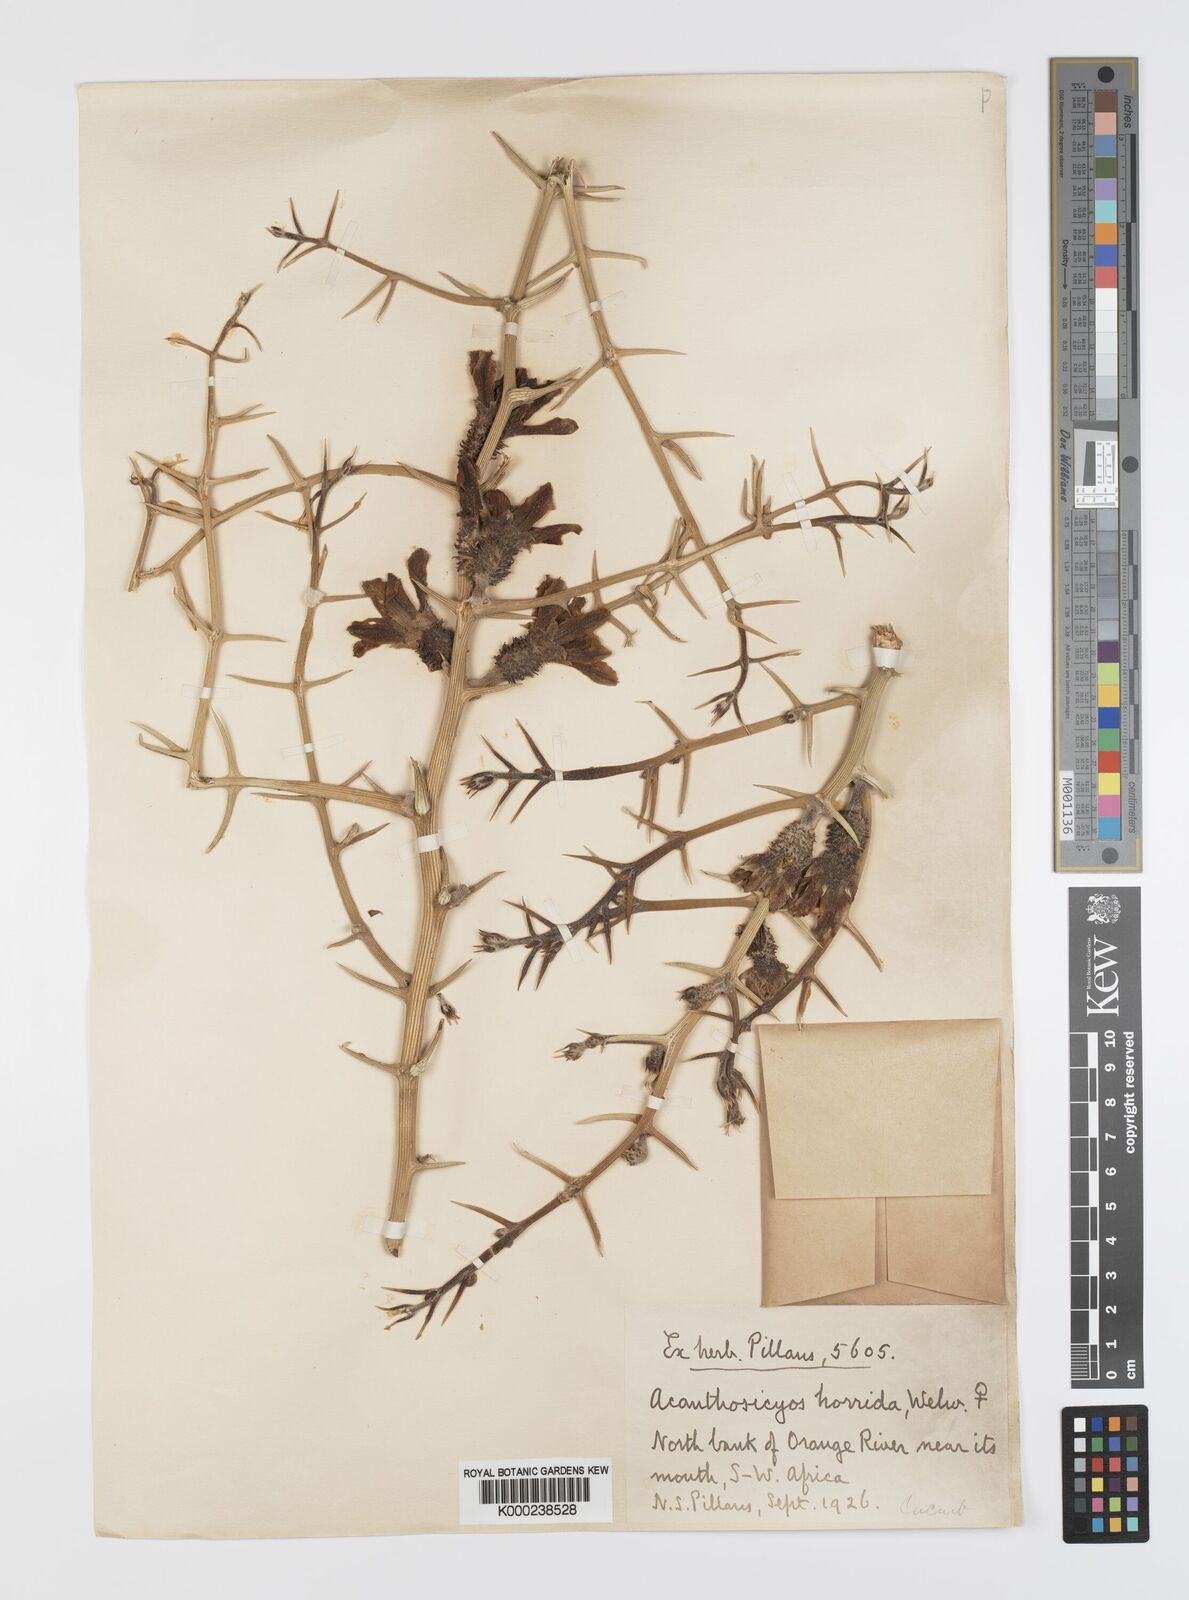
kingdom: Plantae
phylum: Tracheophyta
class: Magnoliopsida
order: Cucurbitales
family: Cucurbitaceae
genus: Acanthosicyos
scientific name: Acanthosicyos horridus
